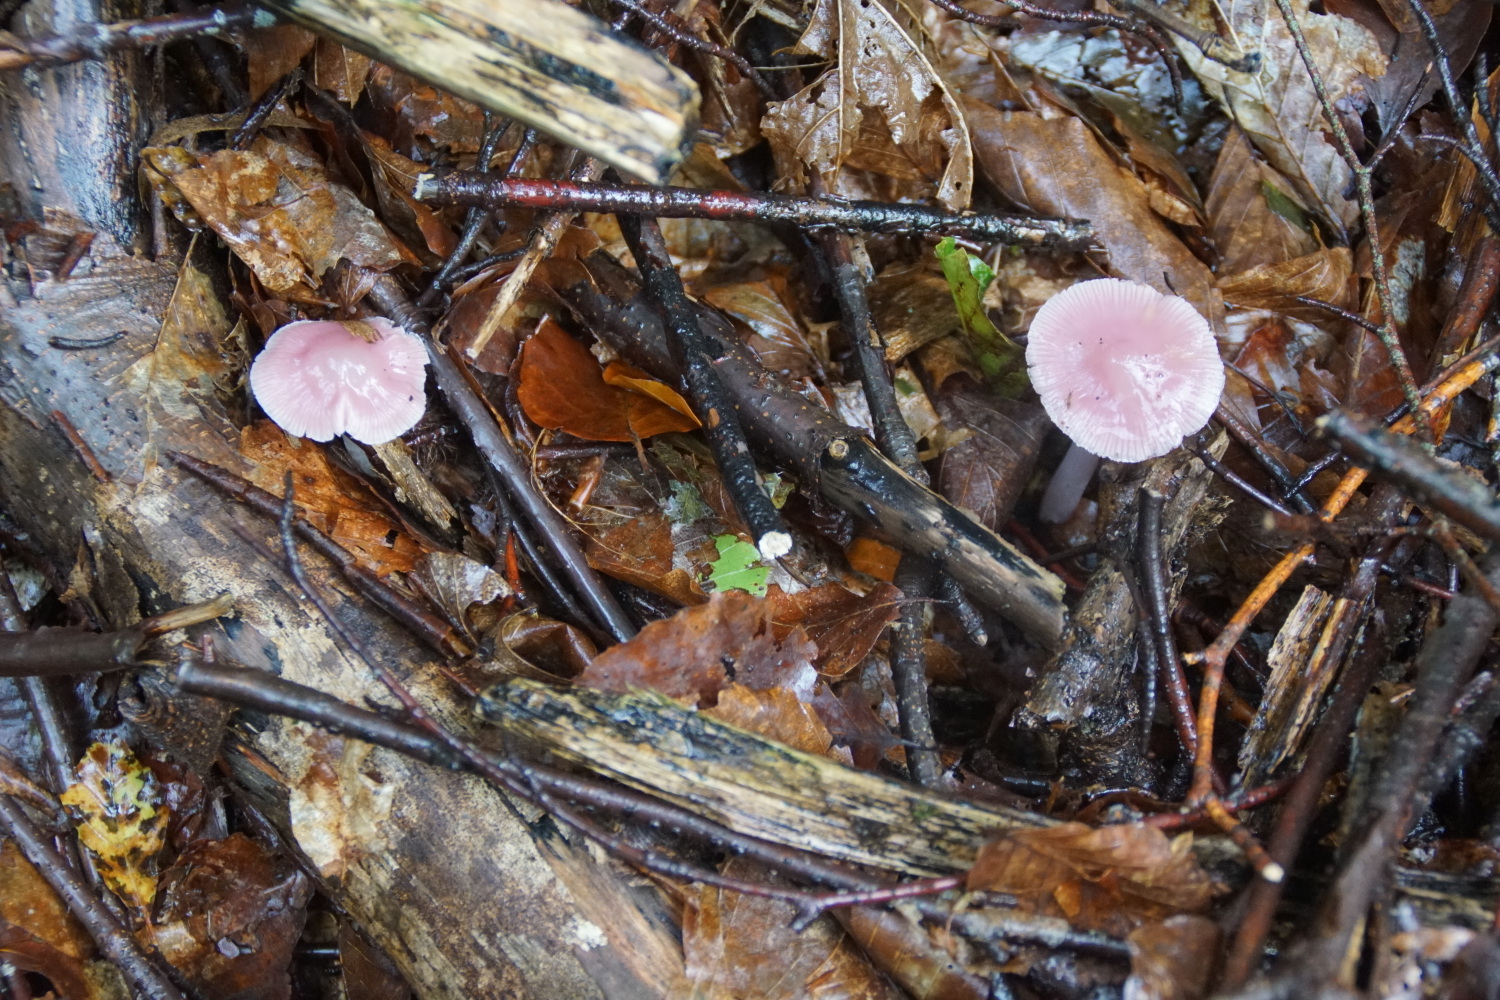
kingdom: Fungi
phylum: Basidiomycota
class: Agaricomycetes
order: Agaricales
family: Mycenaceae
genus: Mycena
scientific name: Mycena rosea
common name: rosa huesvamp
